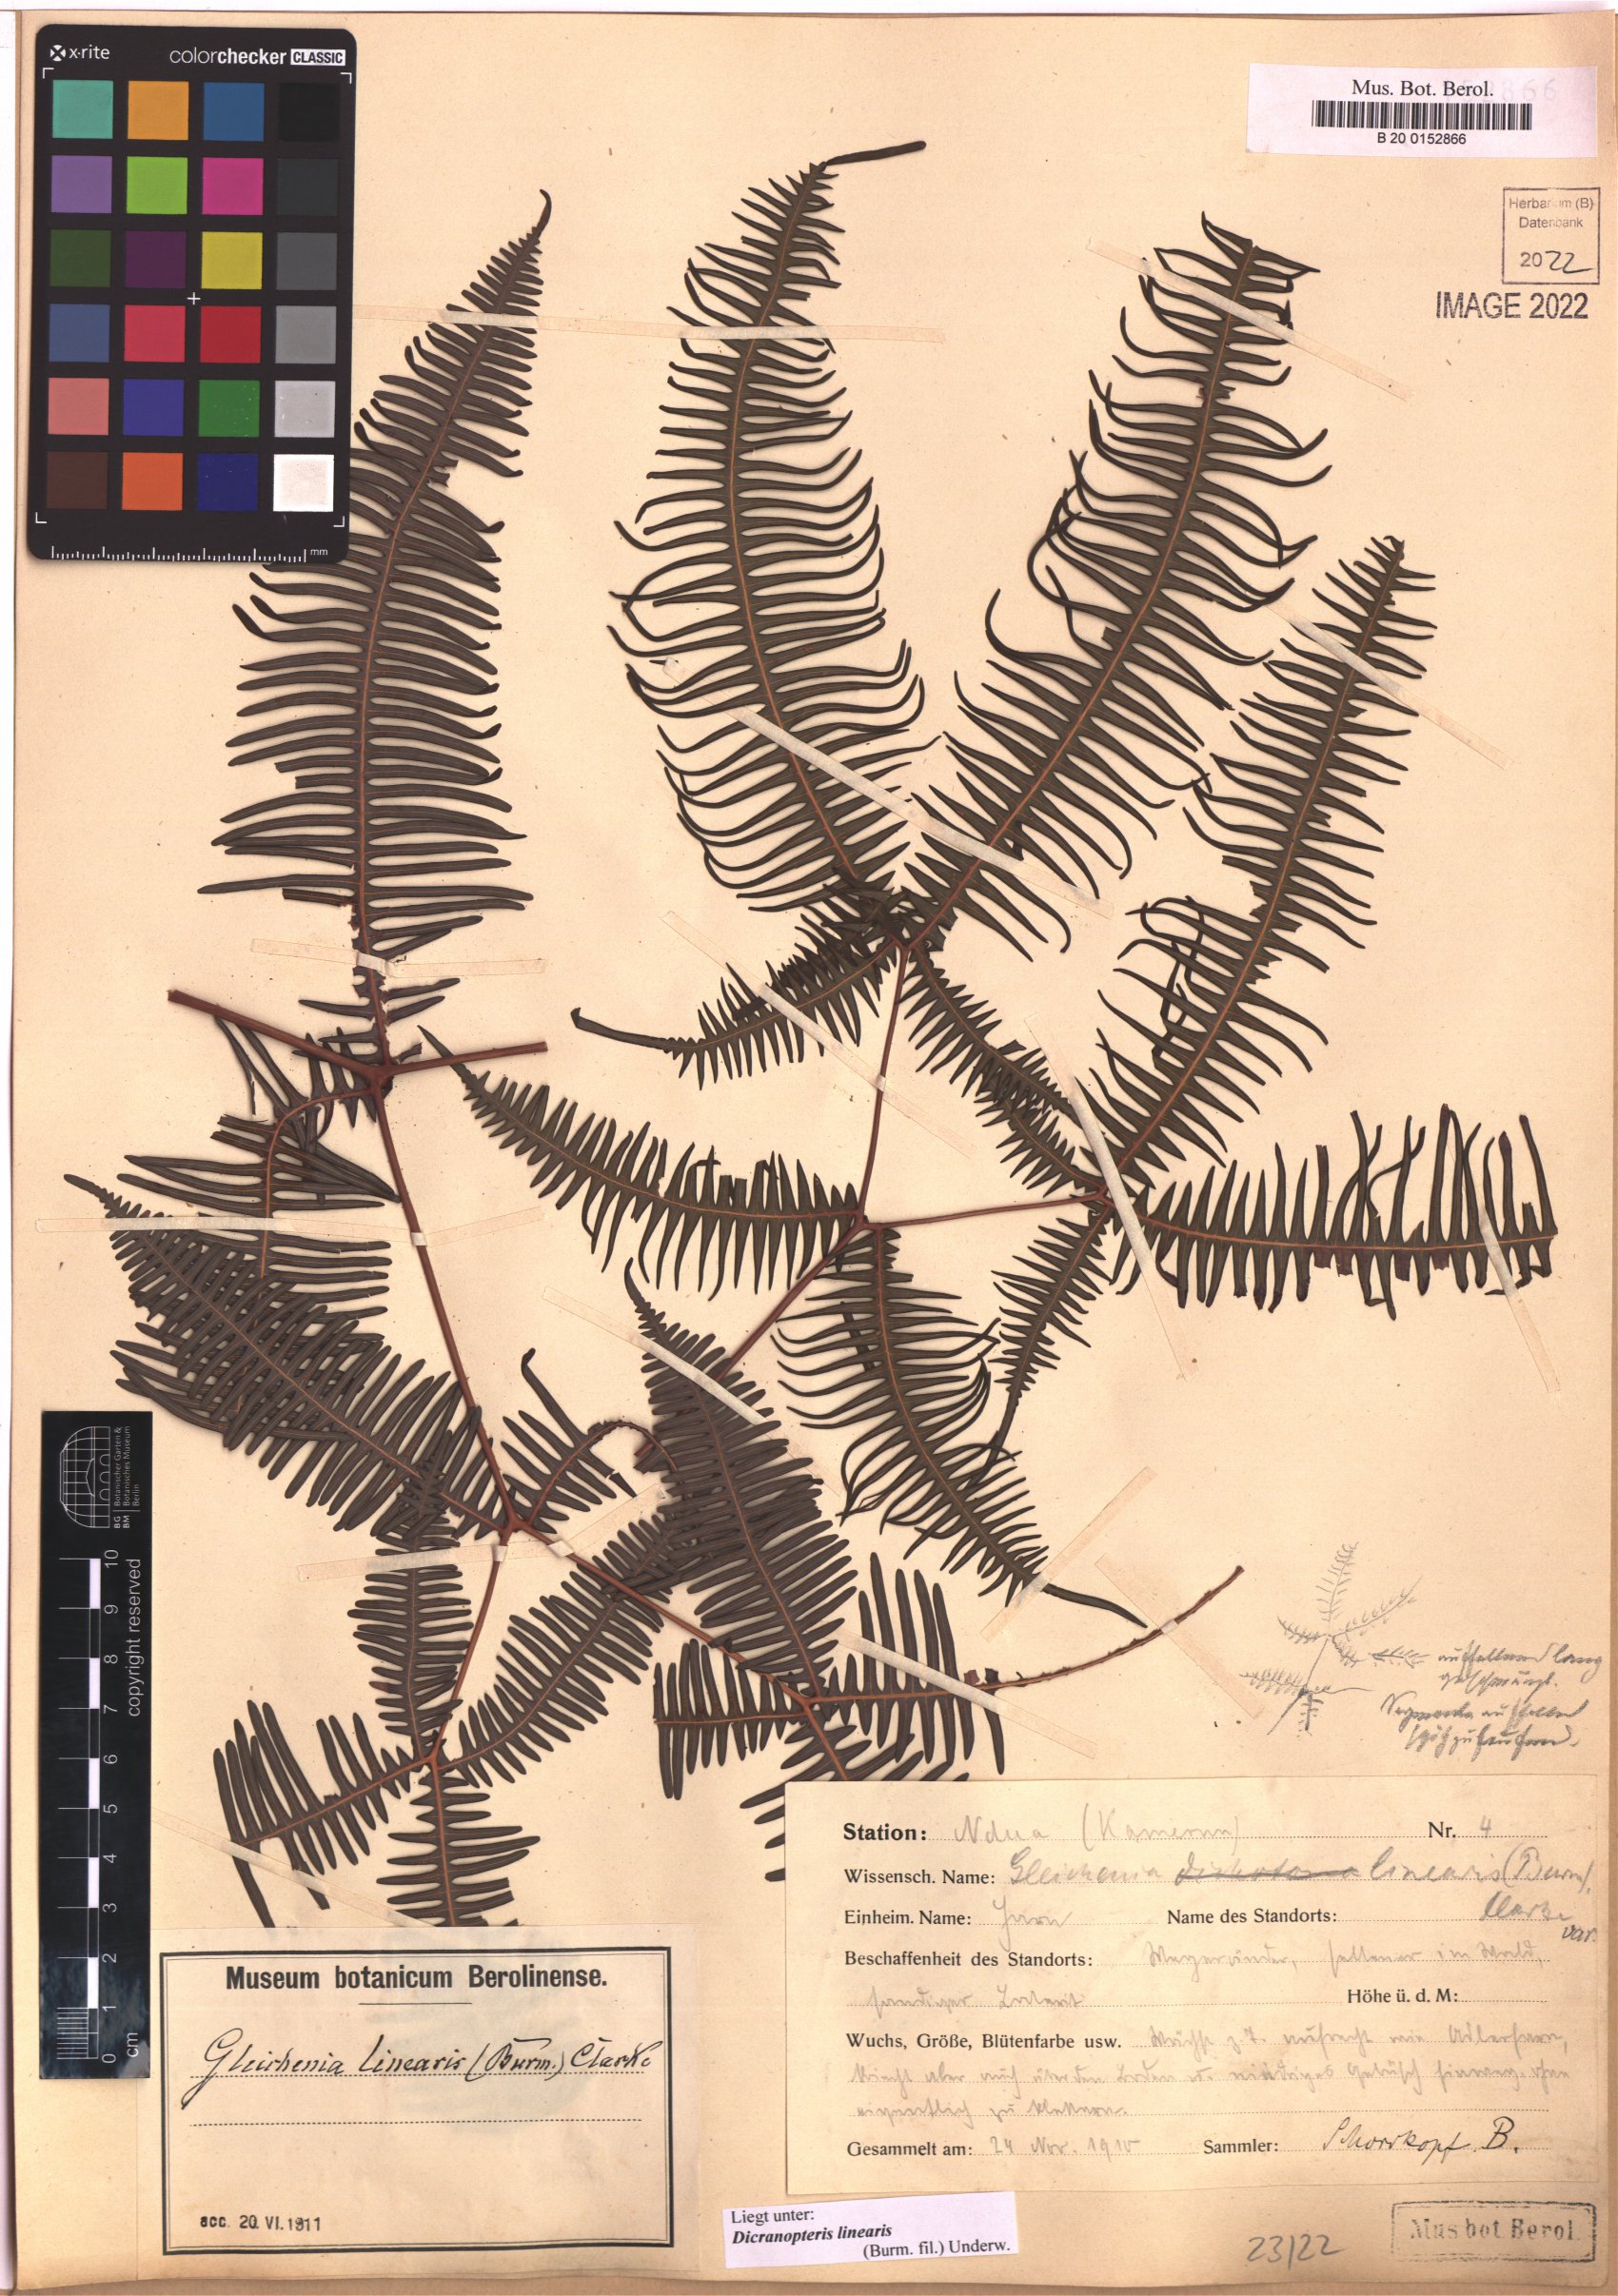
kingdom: Plantae
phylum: Tracheophyta
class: Polypodiopsida
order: Gleicheniales
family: Gleicheniaceae
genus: Dicranopteris
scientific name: Dicranopteris linearis
